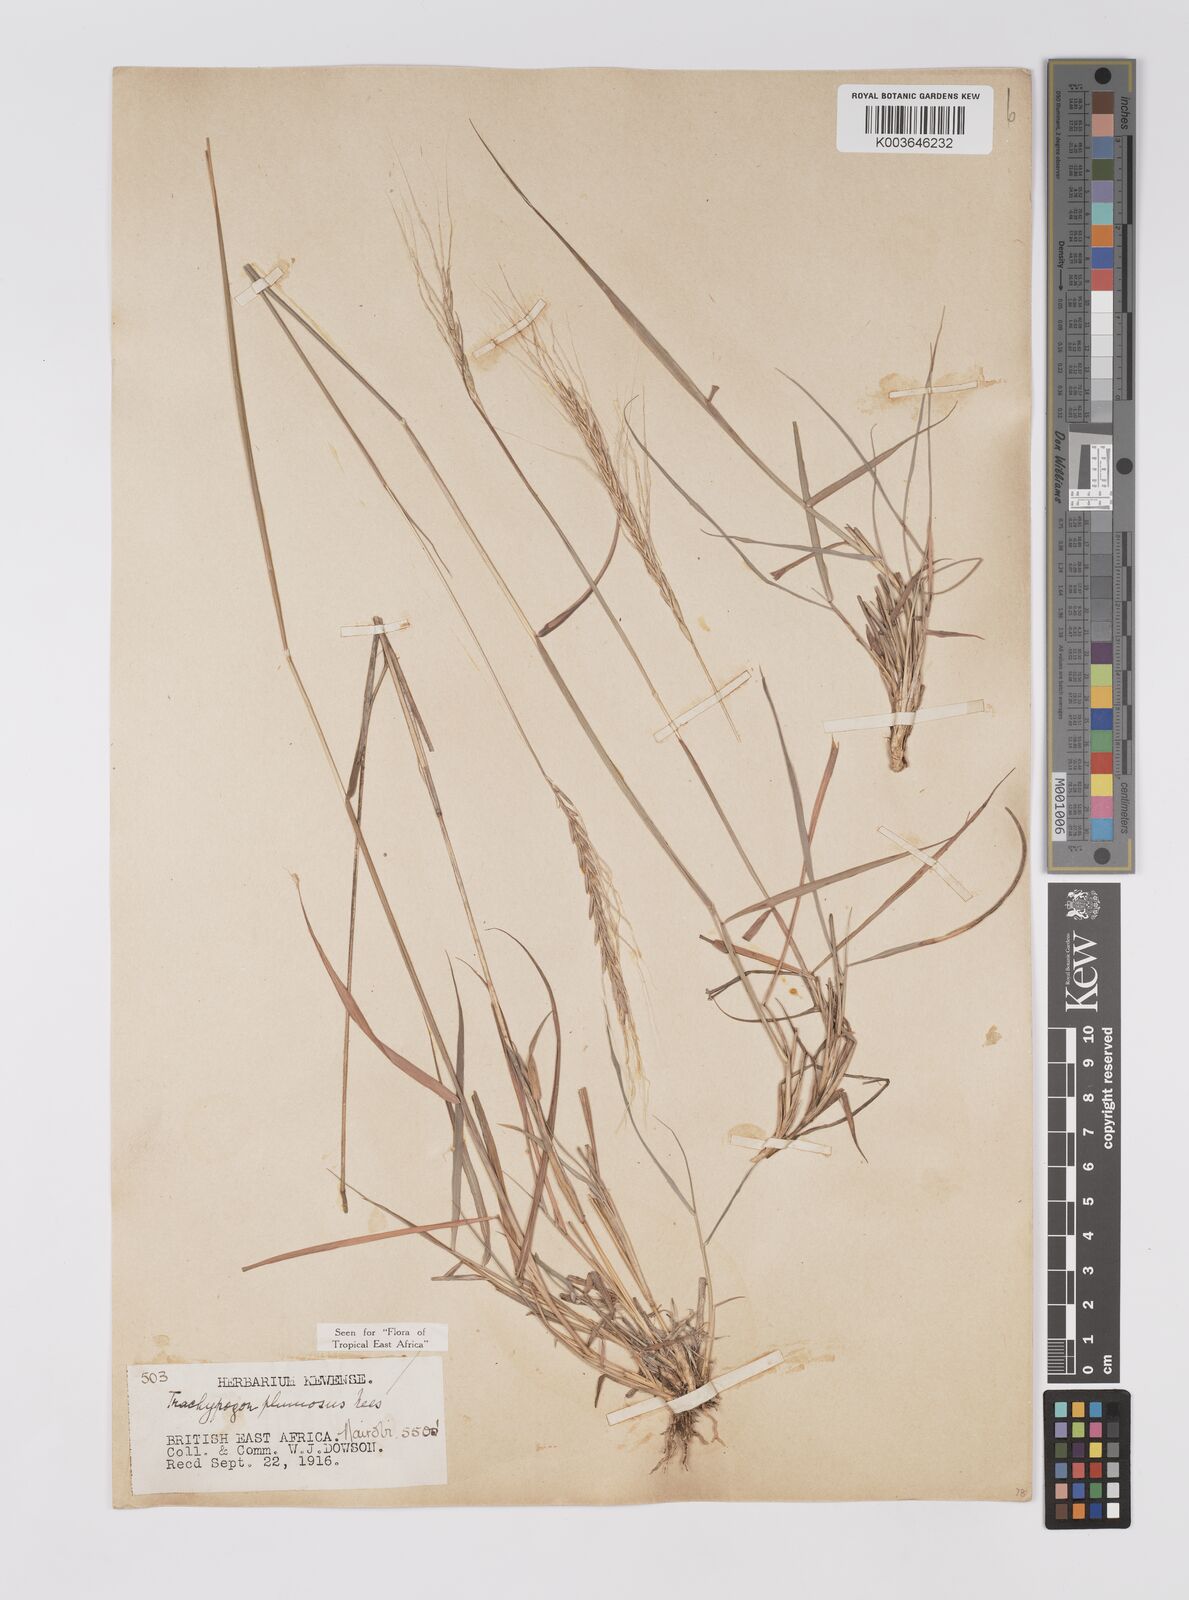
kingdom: Plantae
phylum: Tracheophyta
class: Liliopsida
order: Poales
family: Poaceae
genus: Trachypogon
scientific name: Trachypogon spicatus
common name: Crinkle-awn
